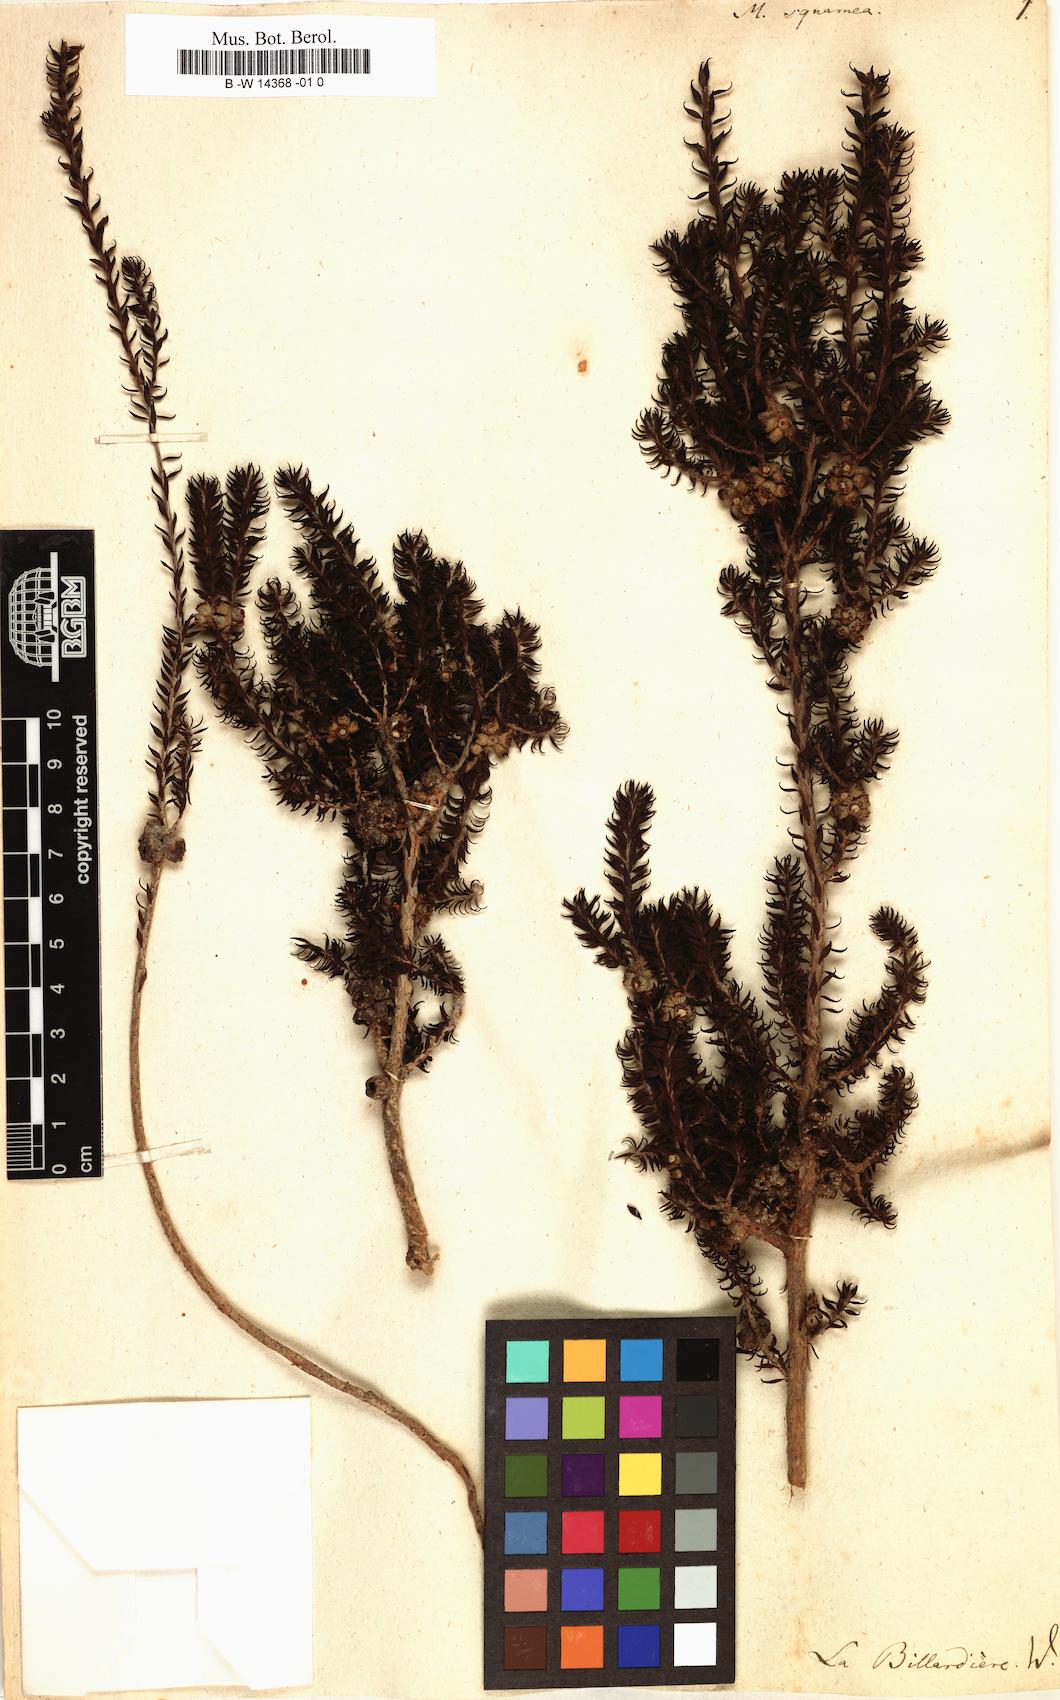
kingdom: Plantae
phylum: Tracheophyta
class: Magnoliopsida
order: Myrtales
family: Myrtaceae
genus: Melaleuca
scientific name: Melaleuca
